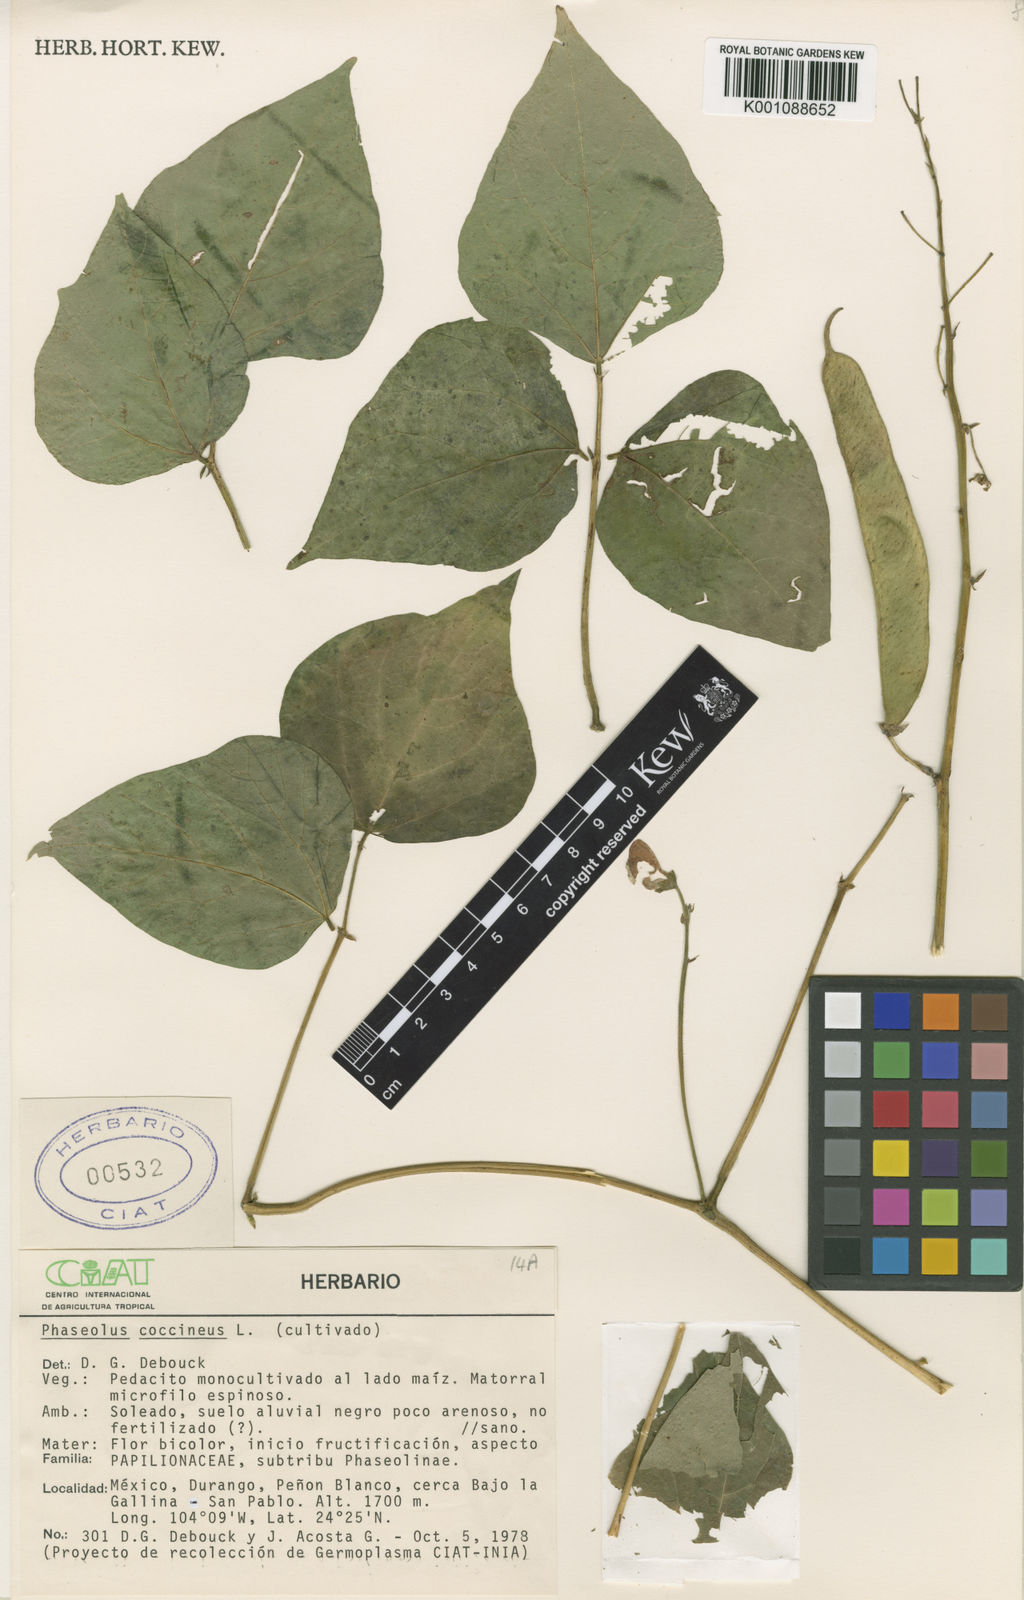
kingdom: Plantae
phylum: Tracheophyta
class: Magnoliopsida
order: Fabales
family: Fabaceae
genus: Phaseolus
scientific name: Phaseolus coccineus
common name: Runner bean
